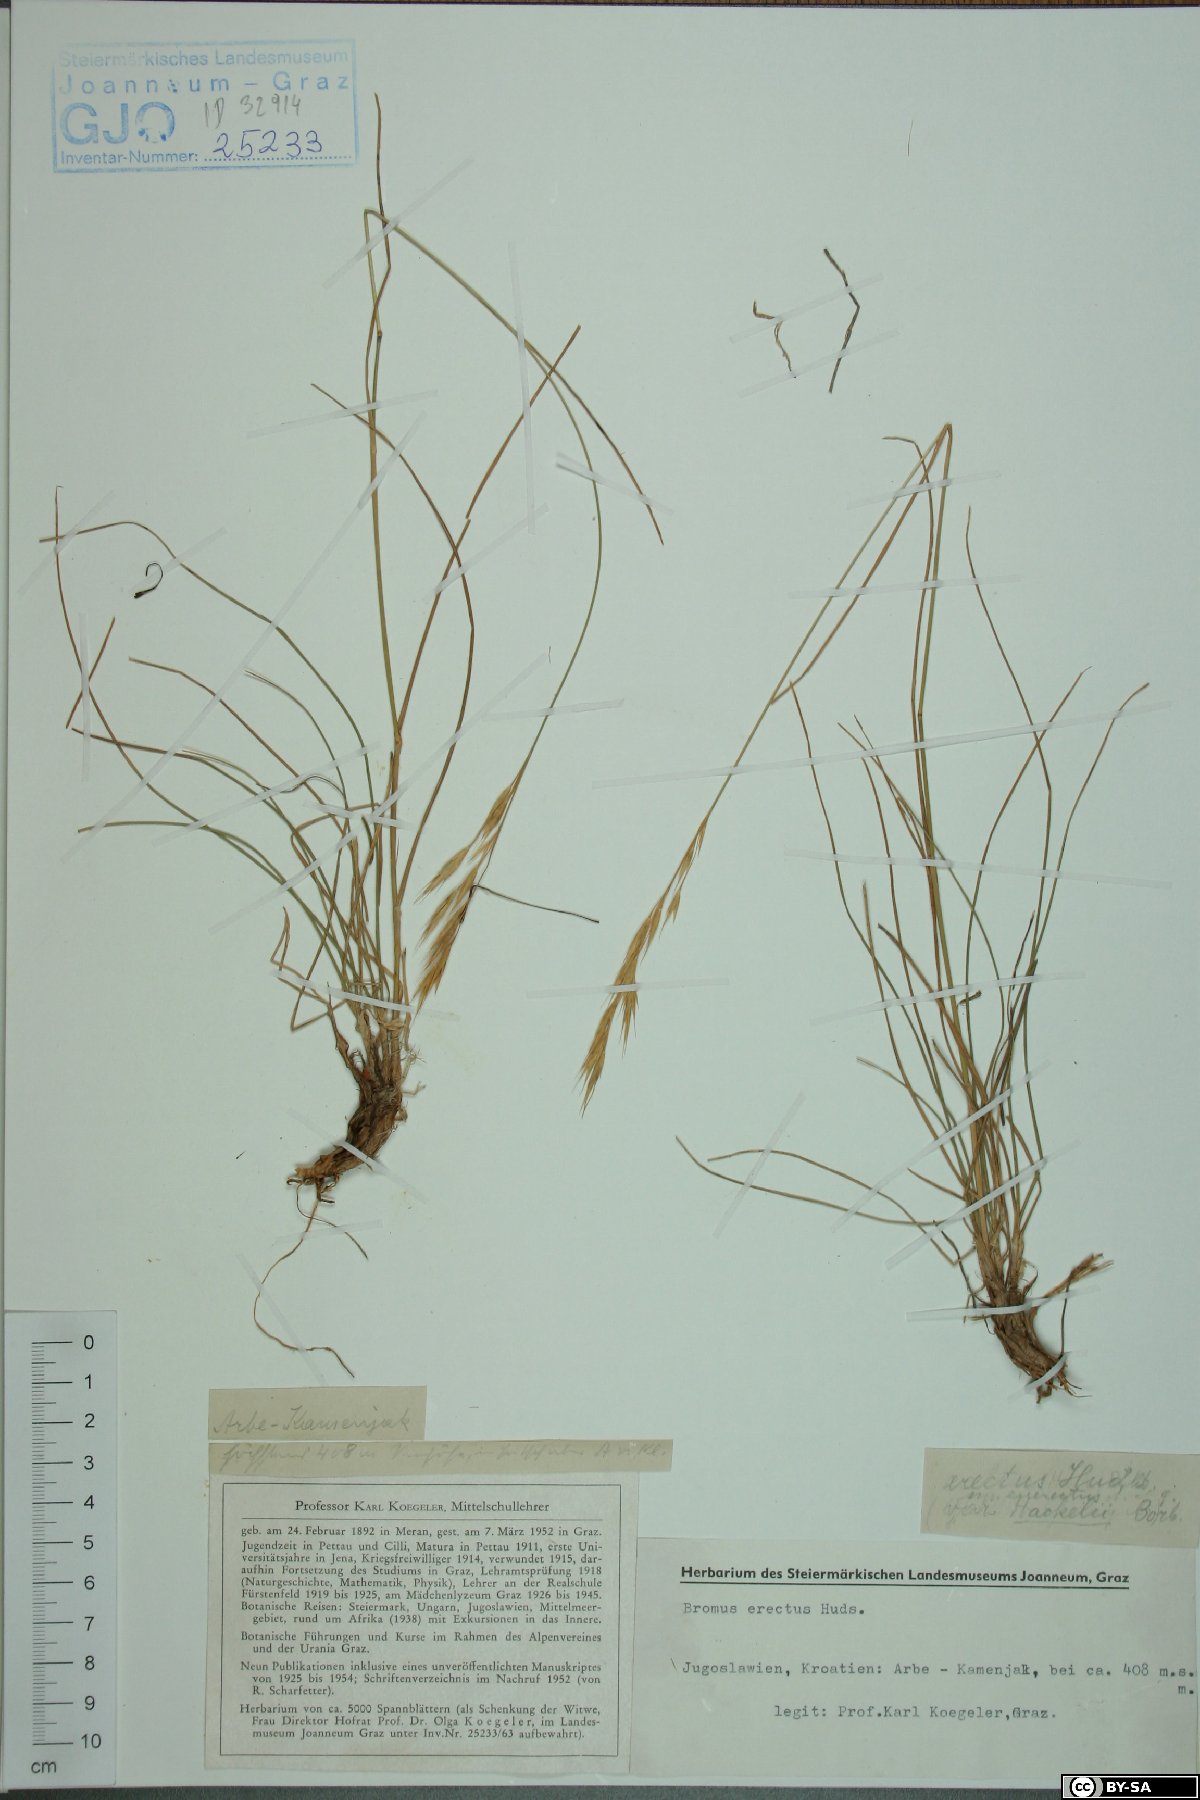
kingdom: Plantae
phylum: Tracheophyta
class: Liliopsida
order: Poales
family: Poaceae
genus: Bromus
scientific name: Bromus erectus
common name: Erect brome
